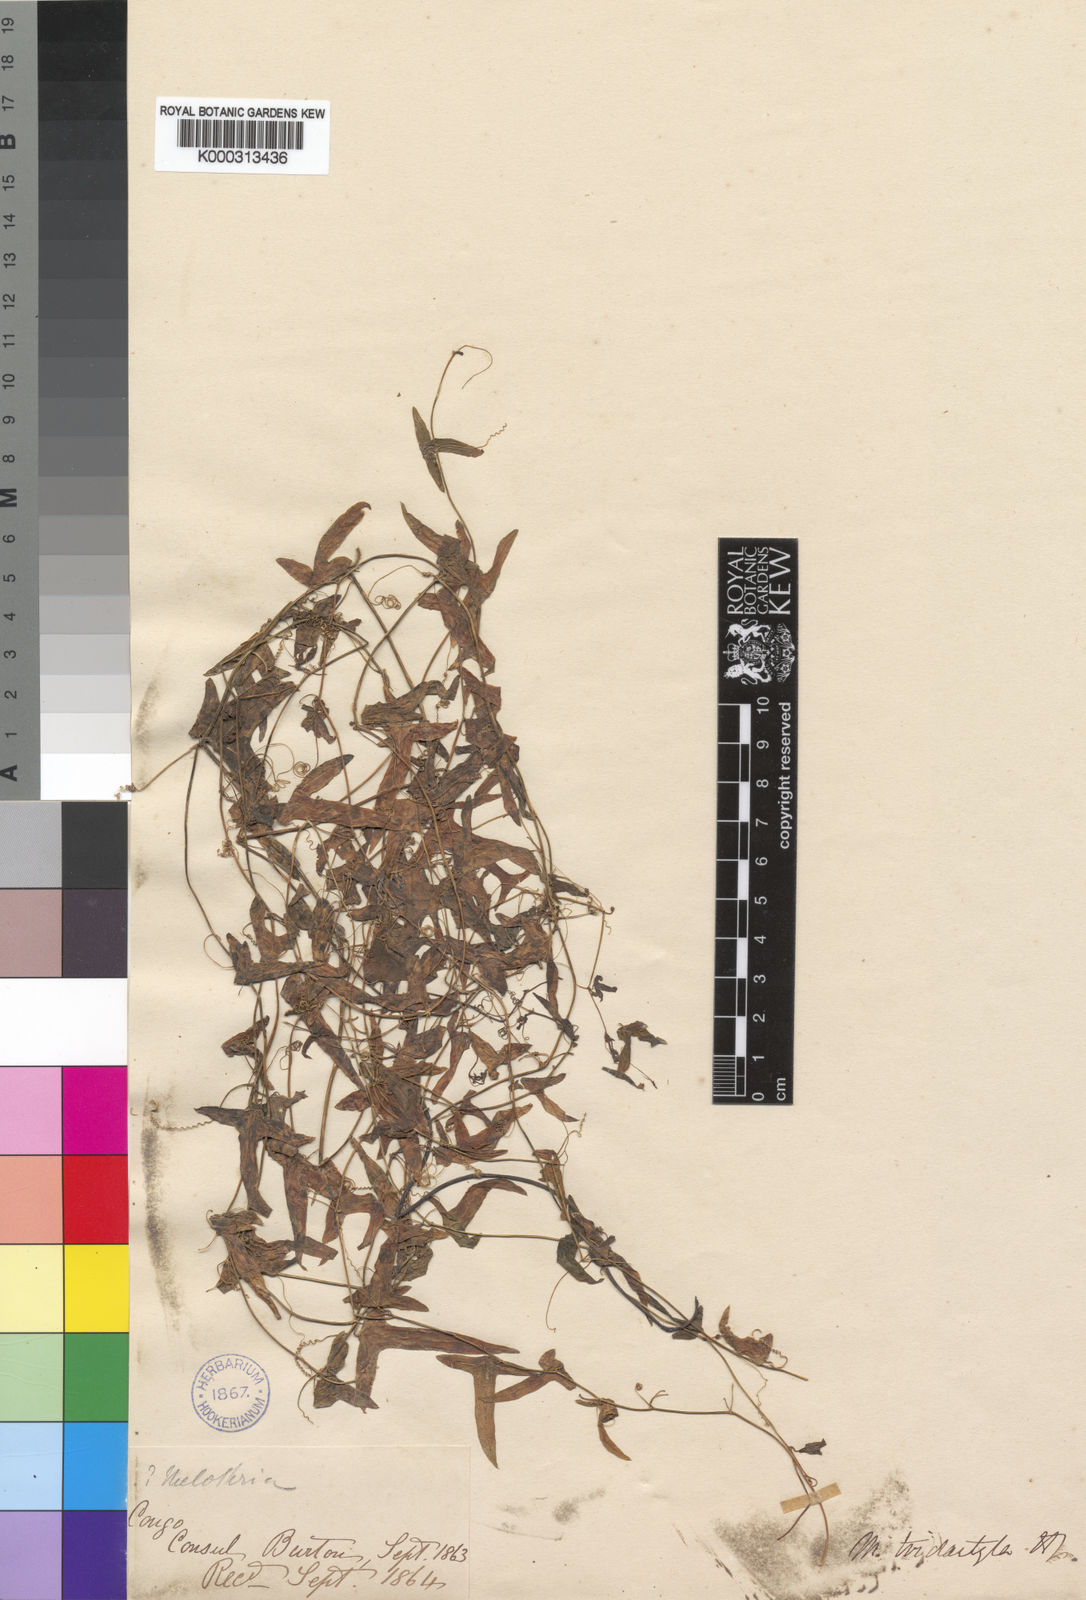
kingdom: Plantae
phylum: Tracheophyta
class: Magnoliopsida
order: Cucurbitales
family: Cucurbitaceae
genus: Zehneria
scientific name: Zehneria thwaitesii
